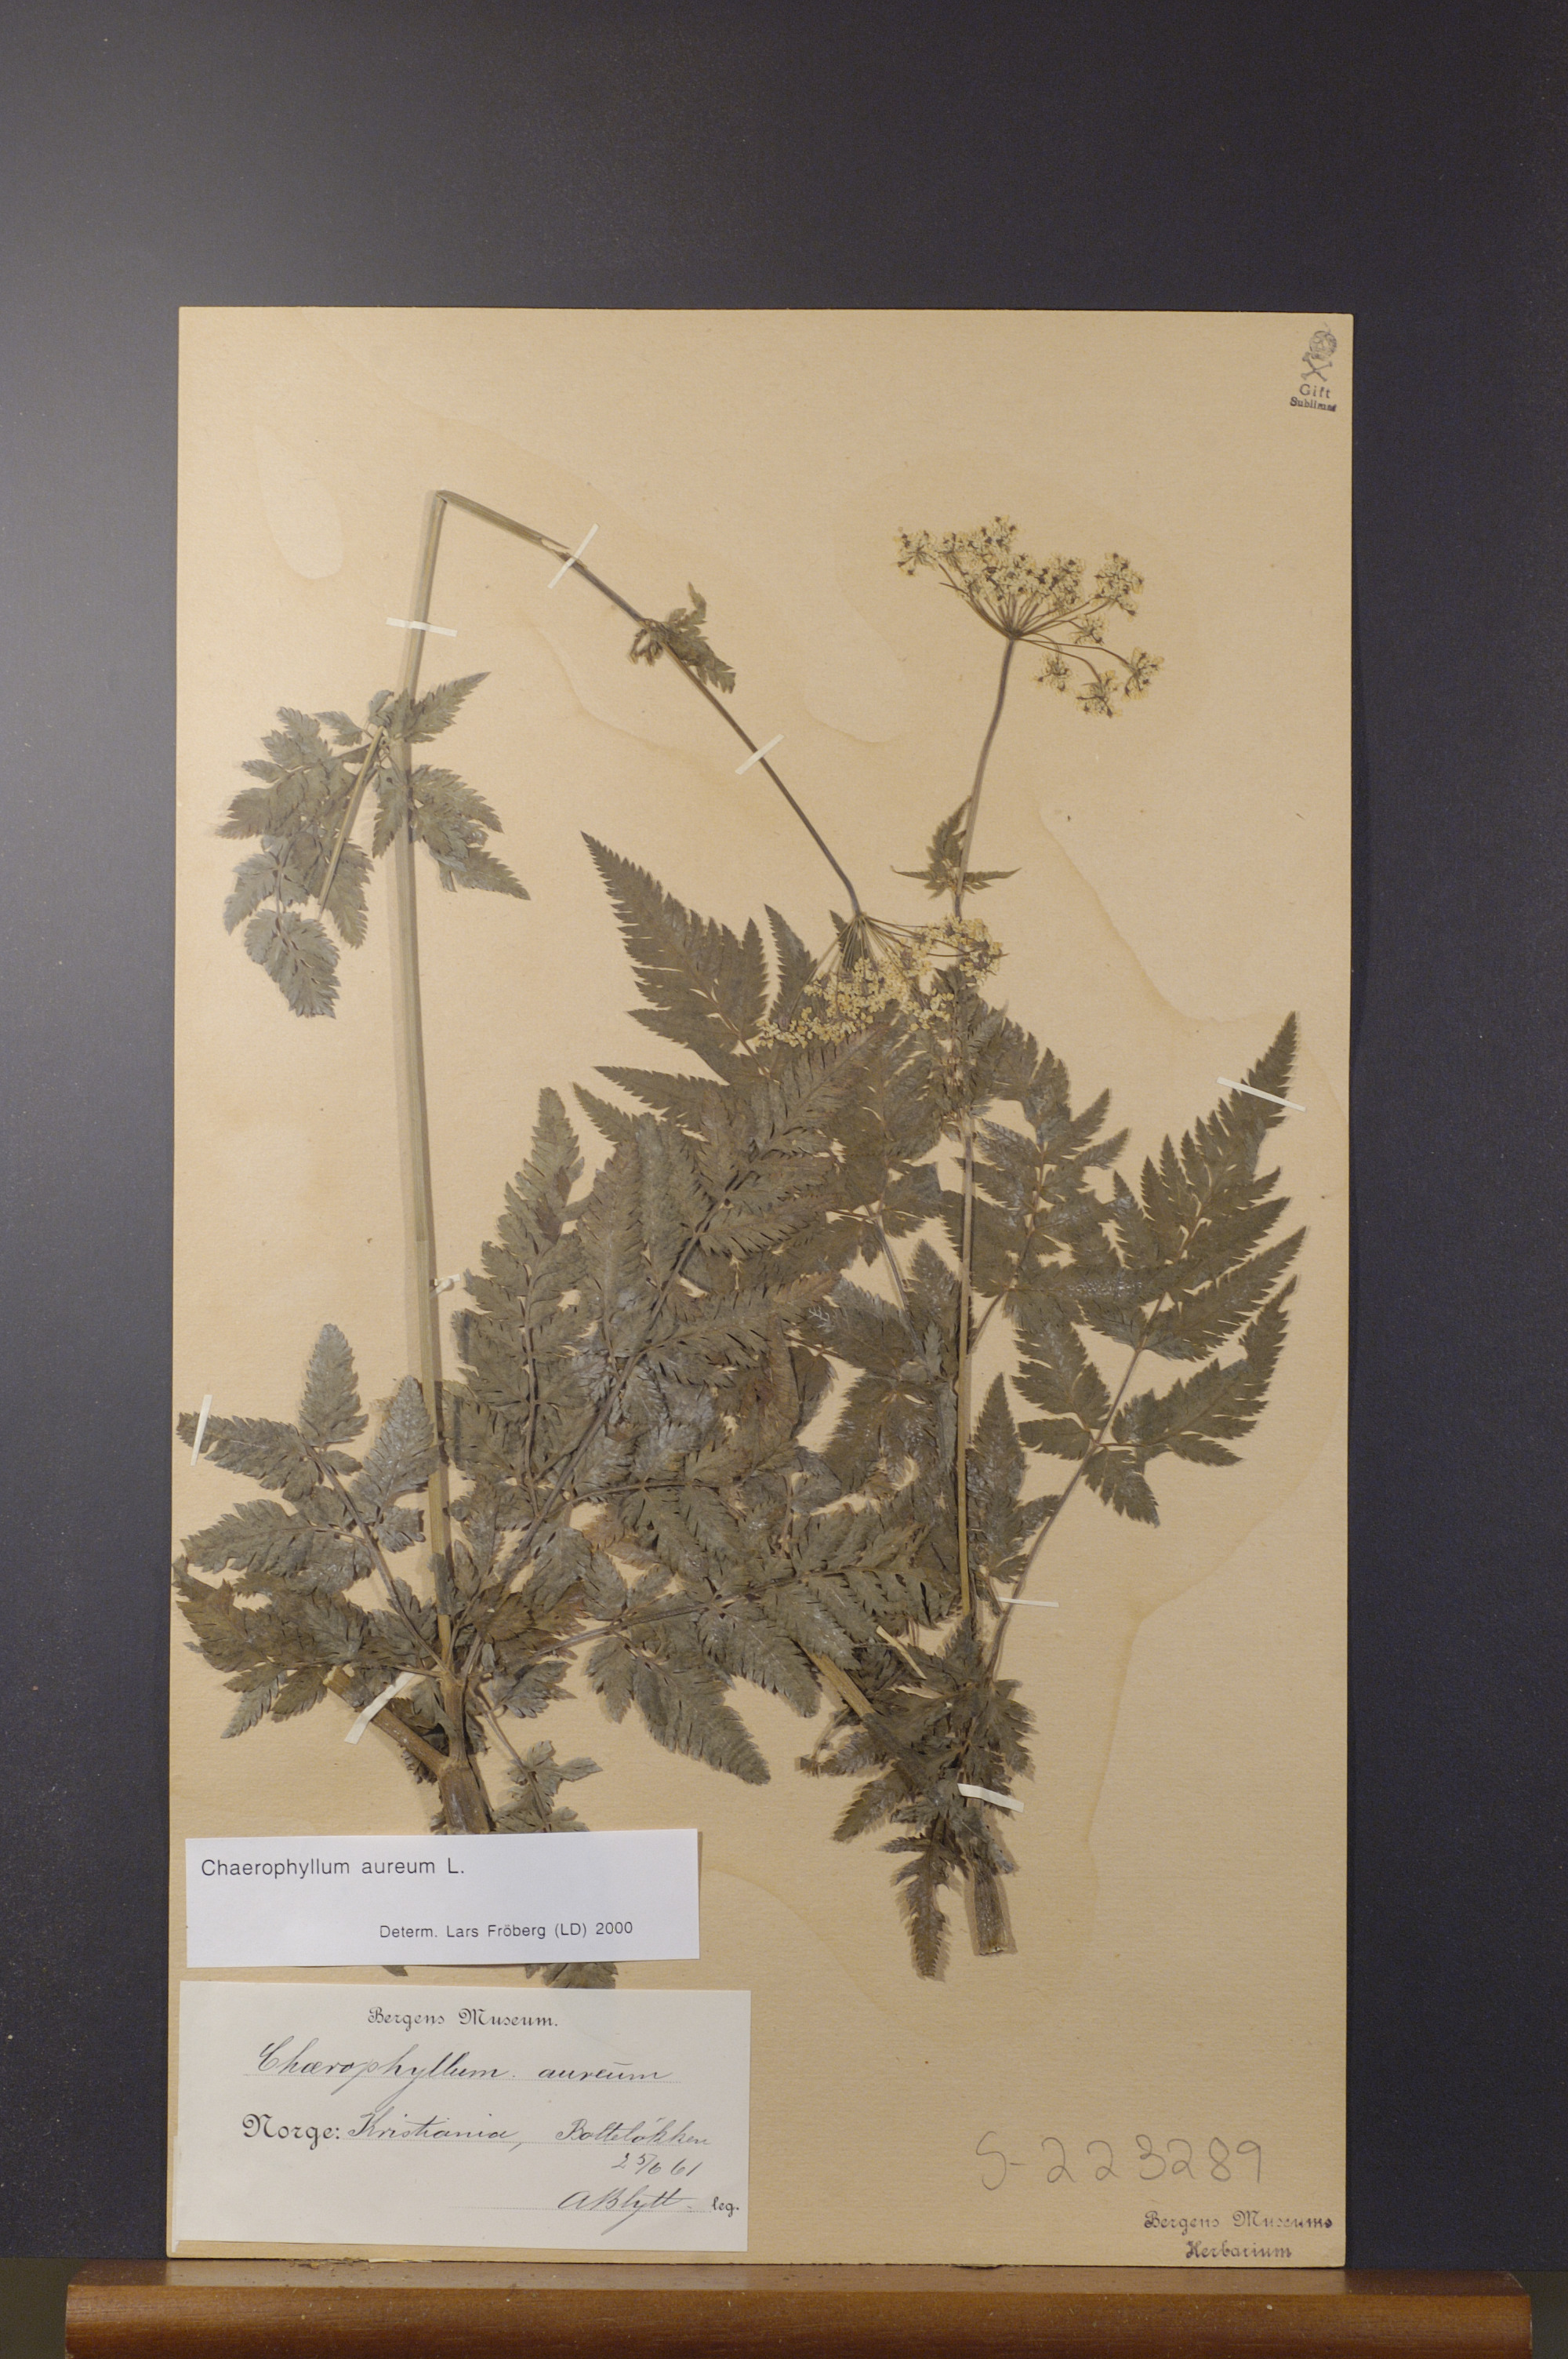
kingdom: Plantae
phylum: Tracheophyta
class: Magnoliopsida
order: Apiales
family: Apiaceae
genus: Chaerophyllum
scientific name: Chaerophyllum aureum
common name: Golden chervil
